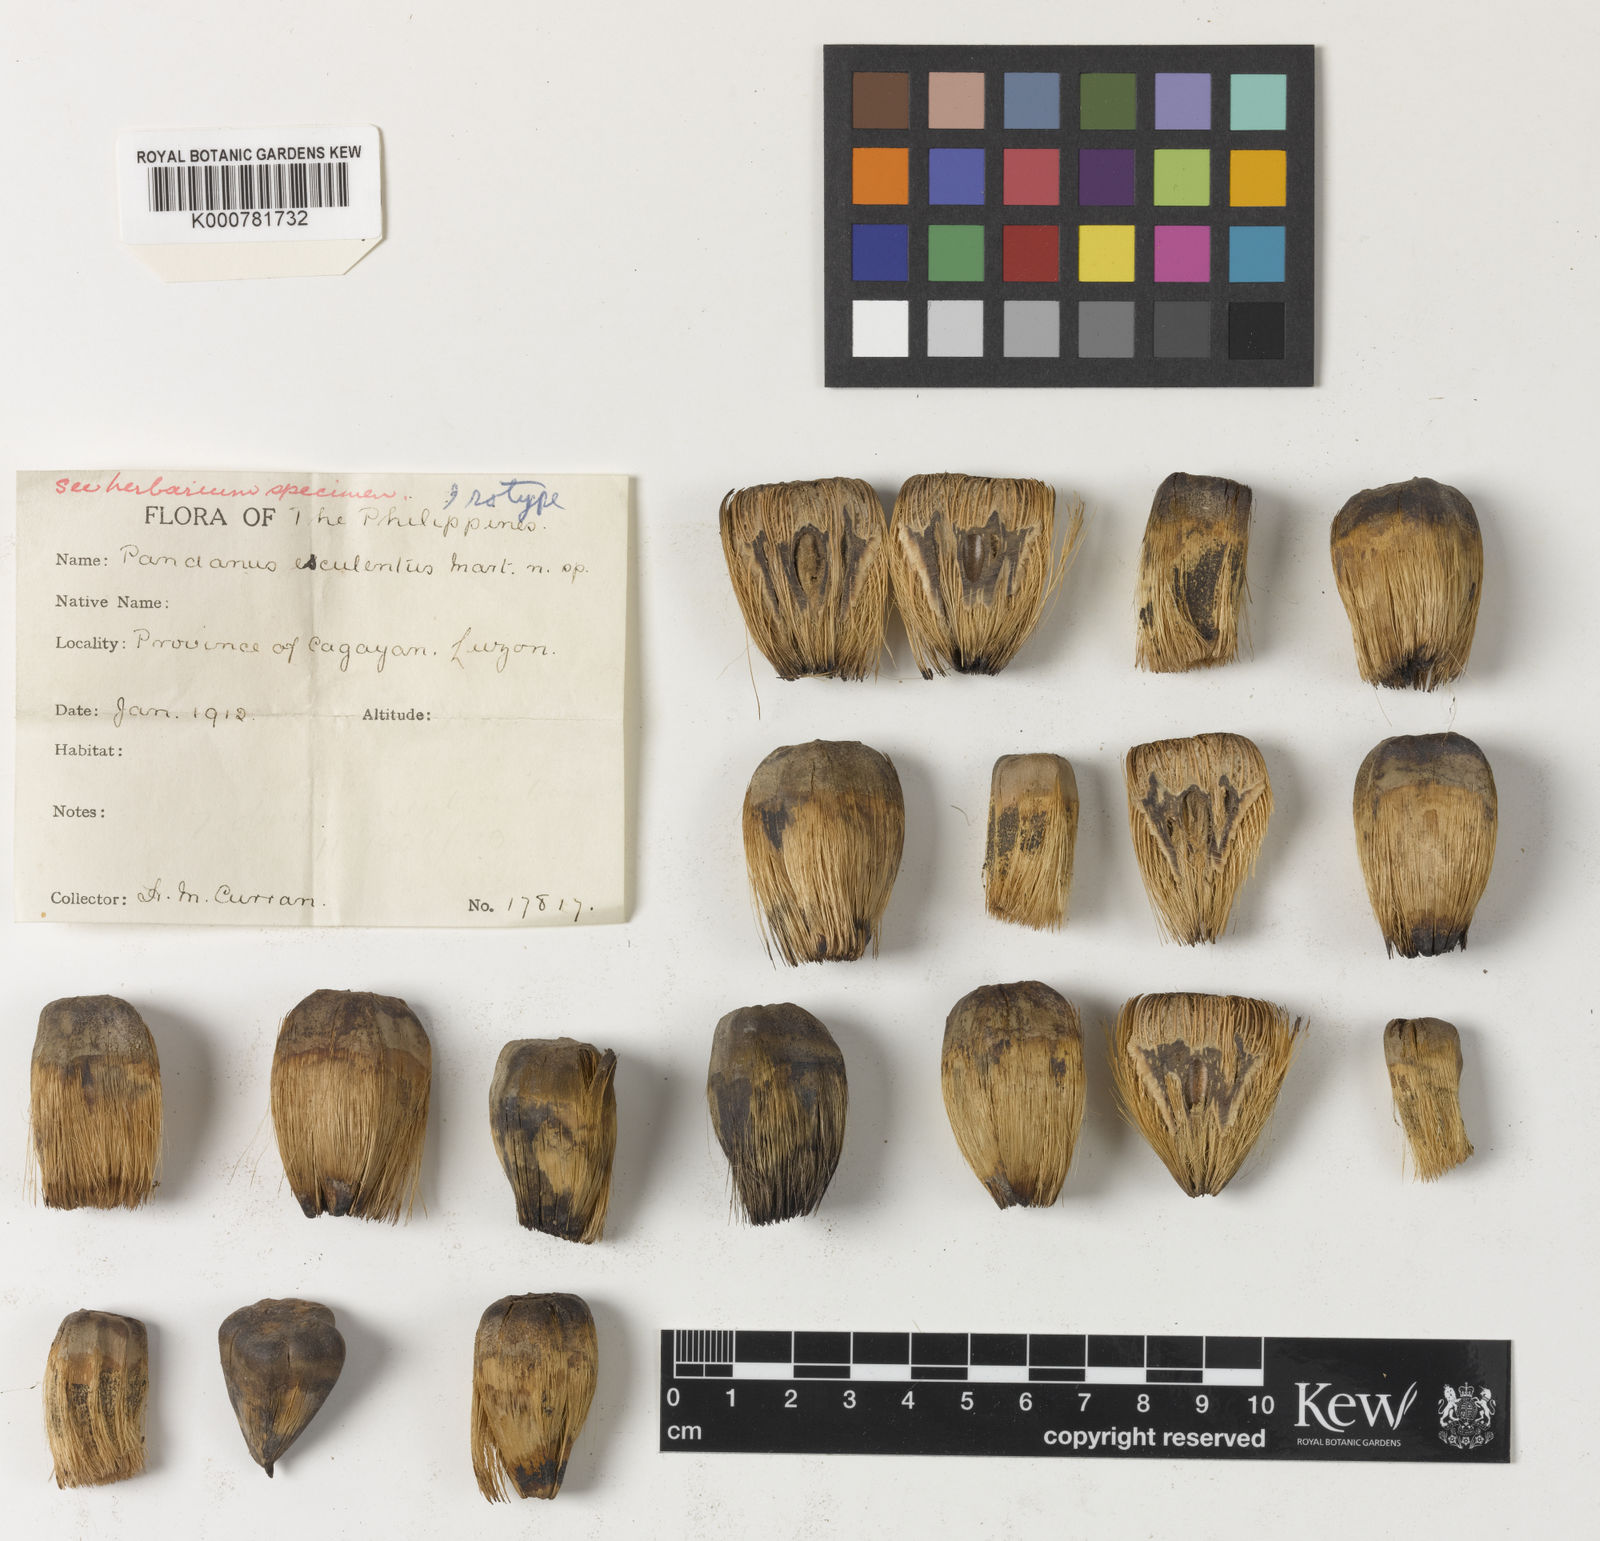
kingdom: Plantae
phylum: Tracheophyta
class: Liliopsida
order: Pandanales
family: Pandanaceae
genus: Pandanus
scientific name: Pandanus esculentus
